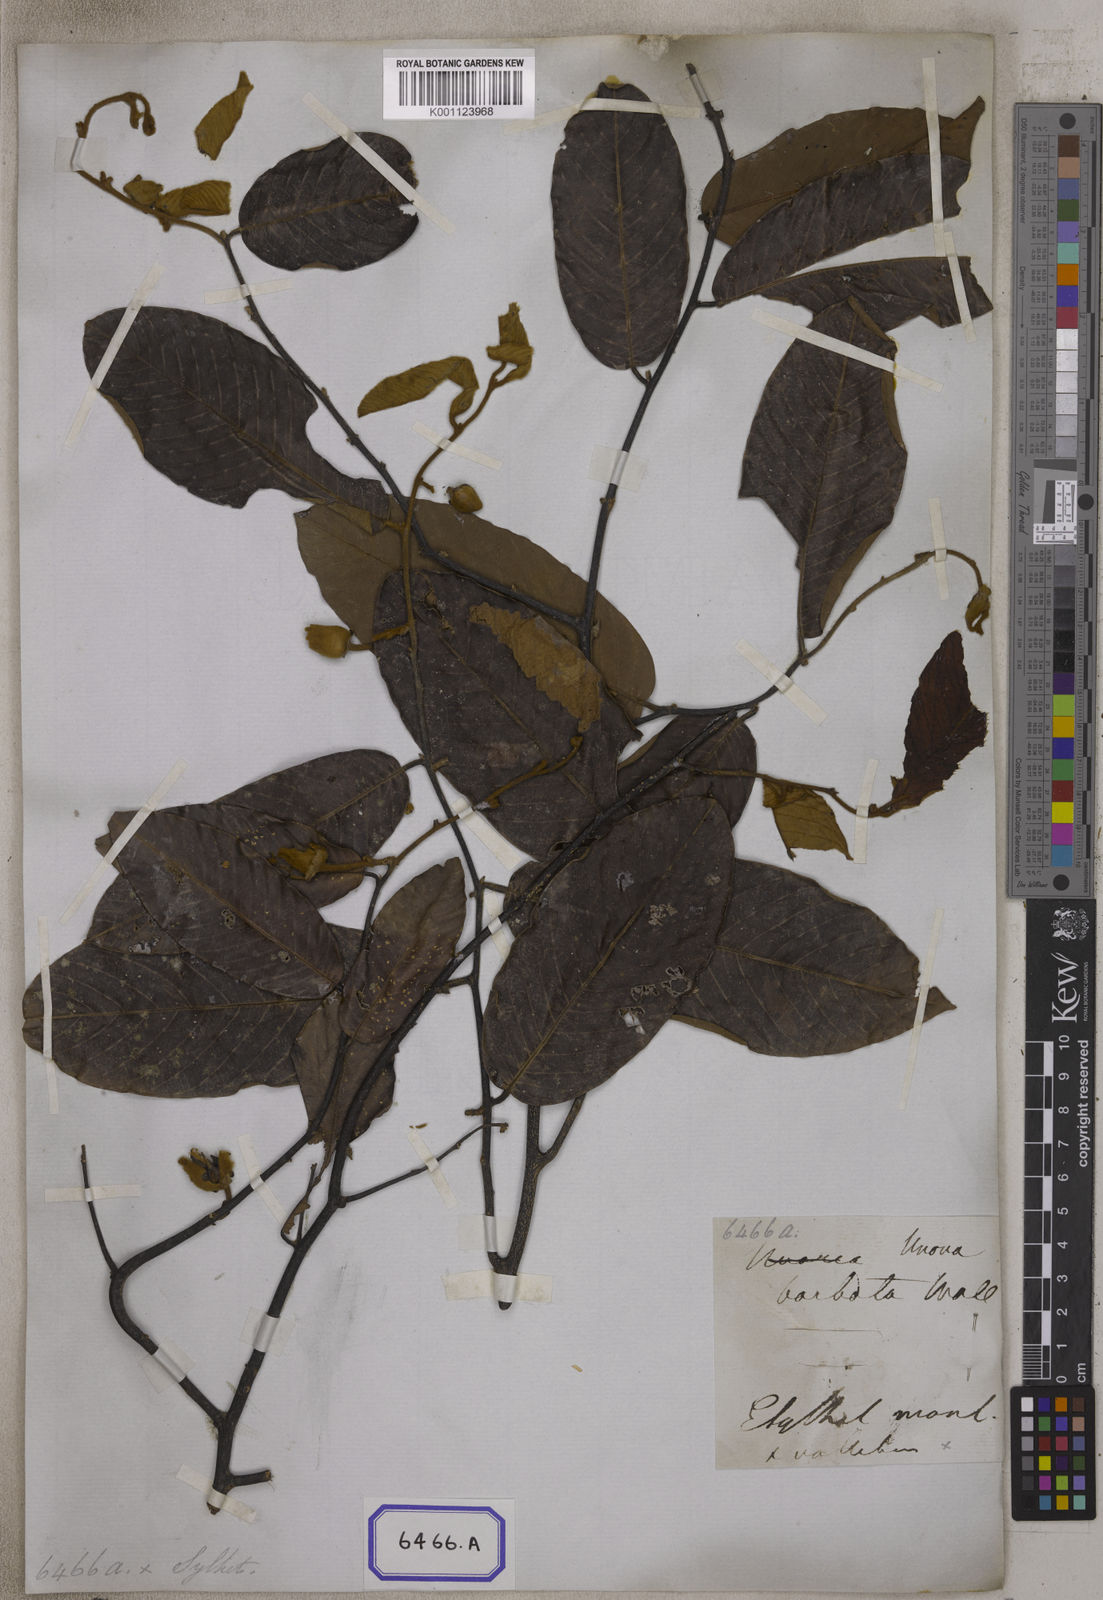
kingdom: Plantae
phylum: Tracheophyta
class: Magnoliopsida
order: Magnoliales
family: Annonaceae
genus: Fissistigma
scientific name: Fissistigma bicolor
